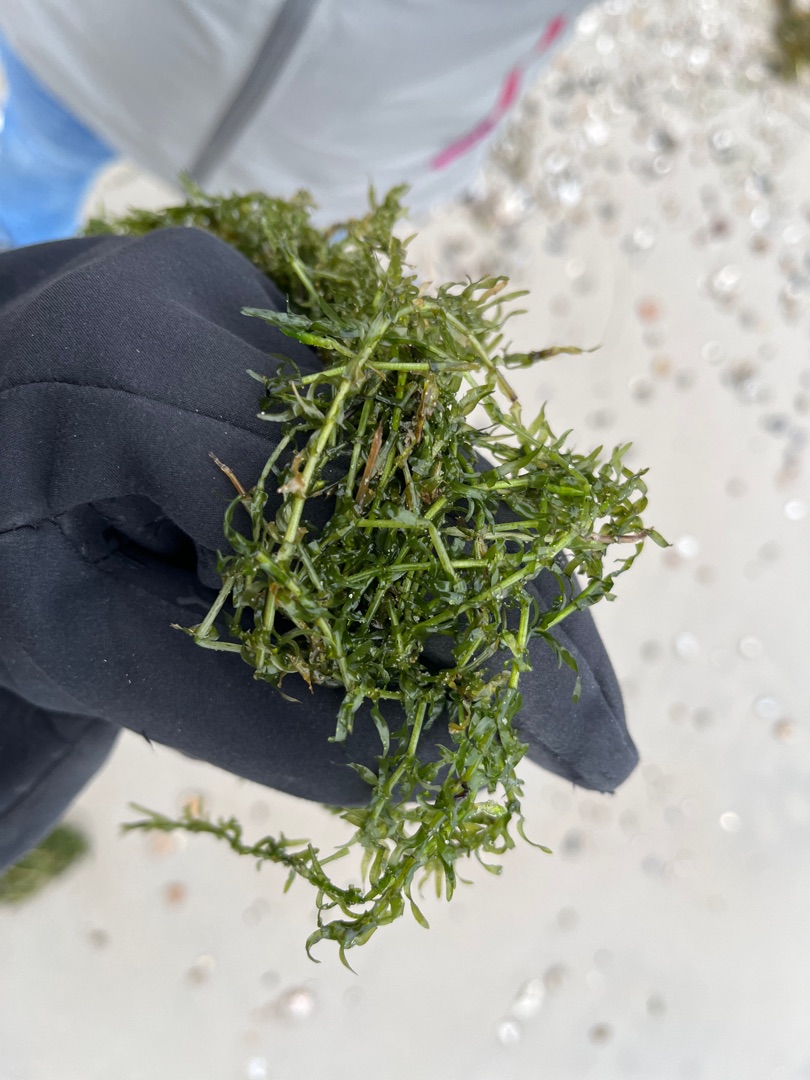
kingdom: Plantae
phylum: Tracheophyta
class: Liliopsida
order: Alismatales
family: Hydrocharitaceae
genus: Elodea
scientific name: Elodea nuttallii
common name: Smalbladet vandpest
